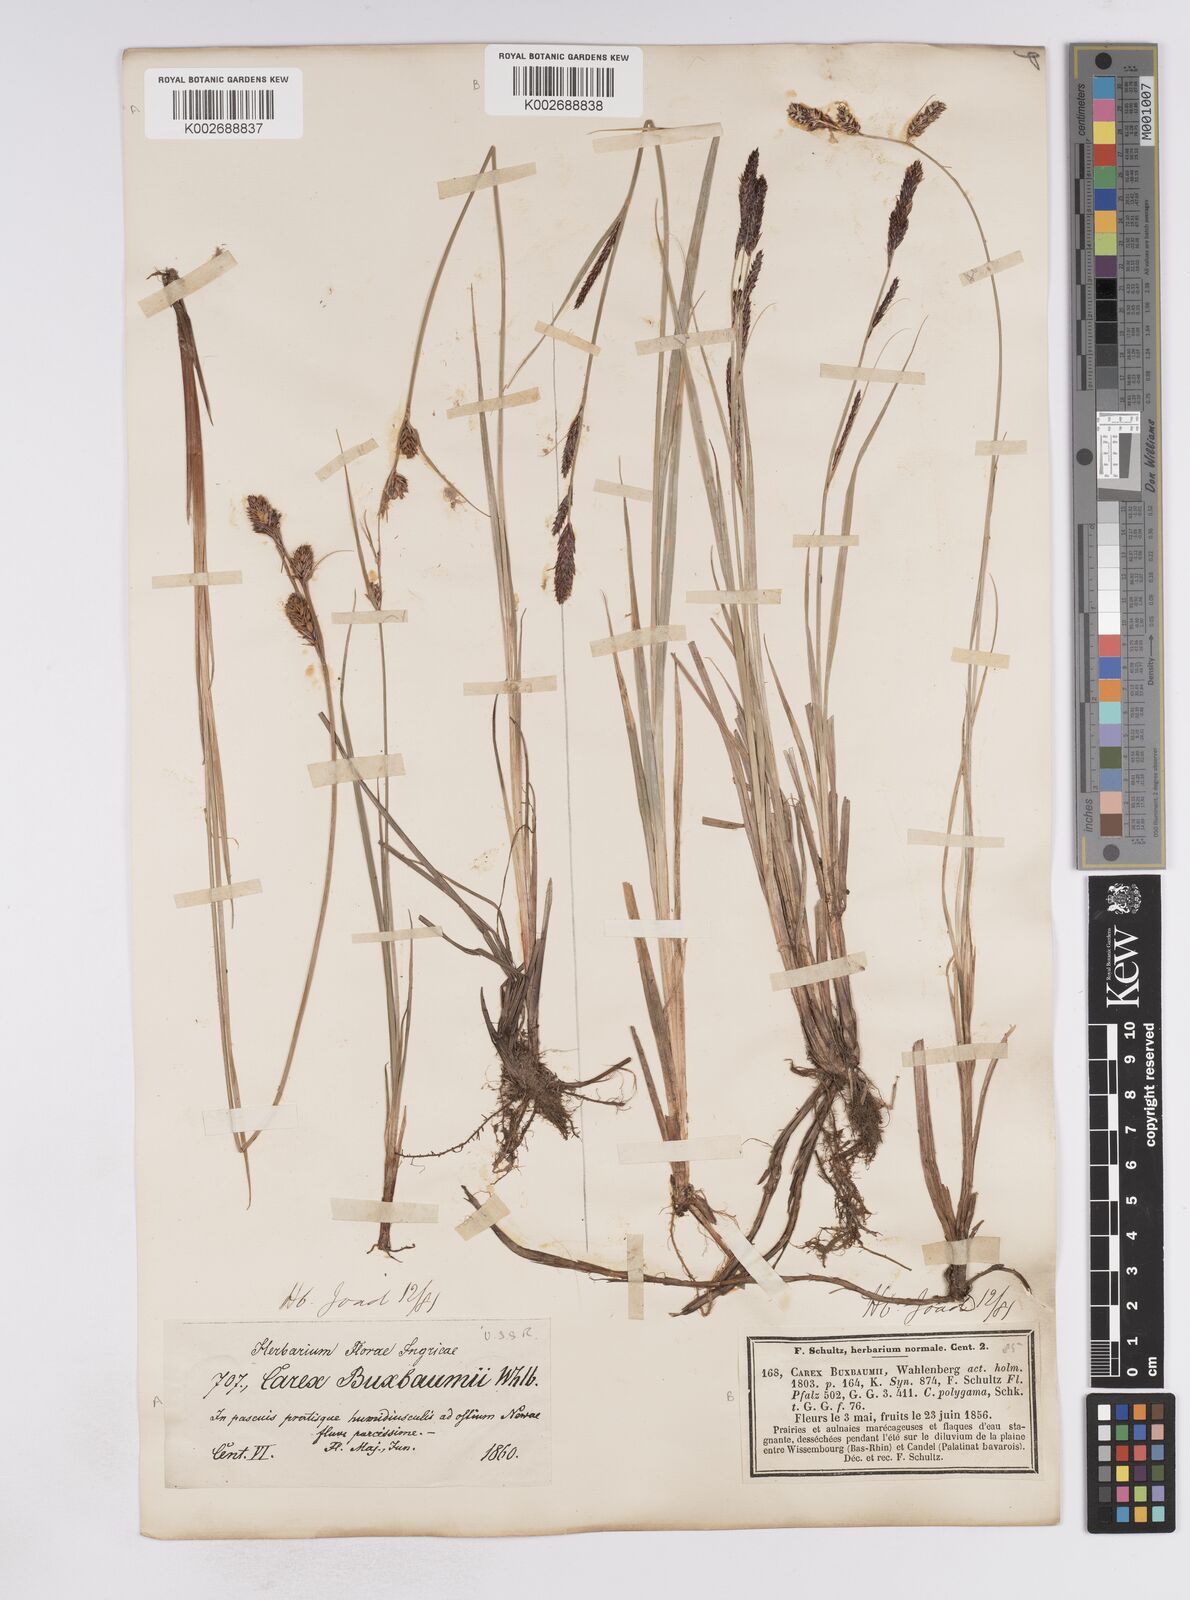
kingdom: Plantae
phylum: Tracheophyta
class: Liliopsida
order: Poales
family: Cyperaceae
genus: Carex
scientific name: Carex buxbaumii
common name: Club sedge
